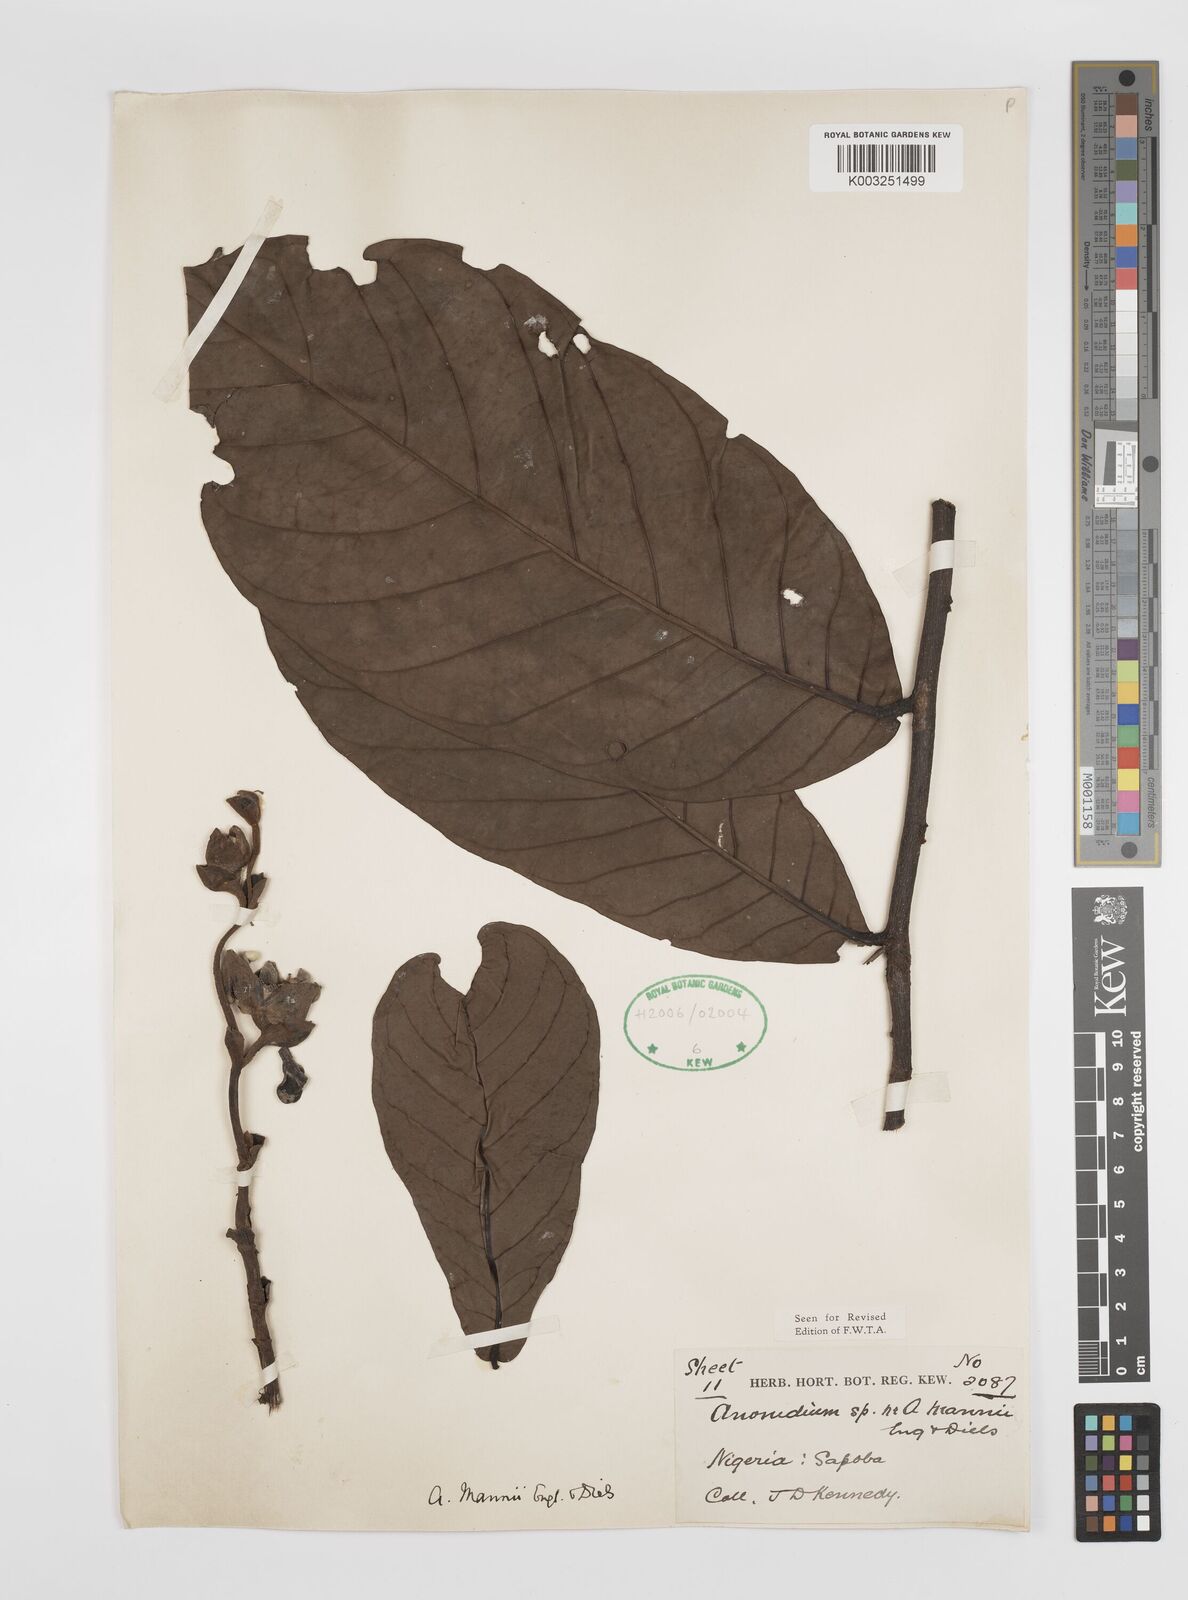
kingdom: Plantae
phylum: Tracheophyta
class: Magnoliopsida
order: Magnoliales
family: Annonaceae
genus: Anonidium
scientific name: Anonidium mannii
